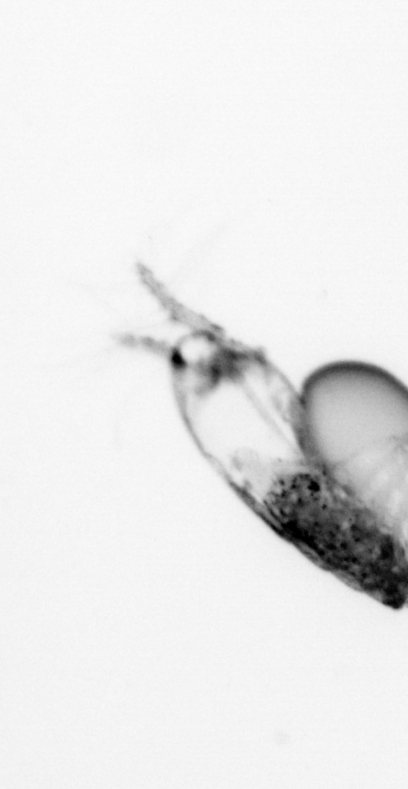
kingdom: Animalia
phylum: Arthropoda
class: Copepoda
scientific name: Copepoda
